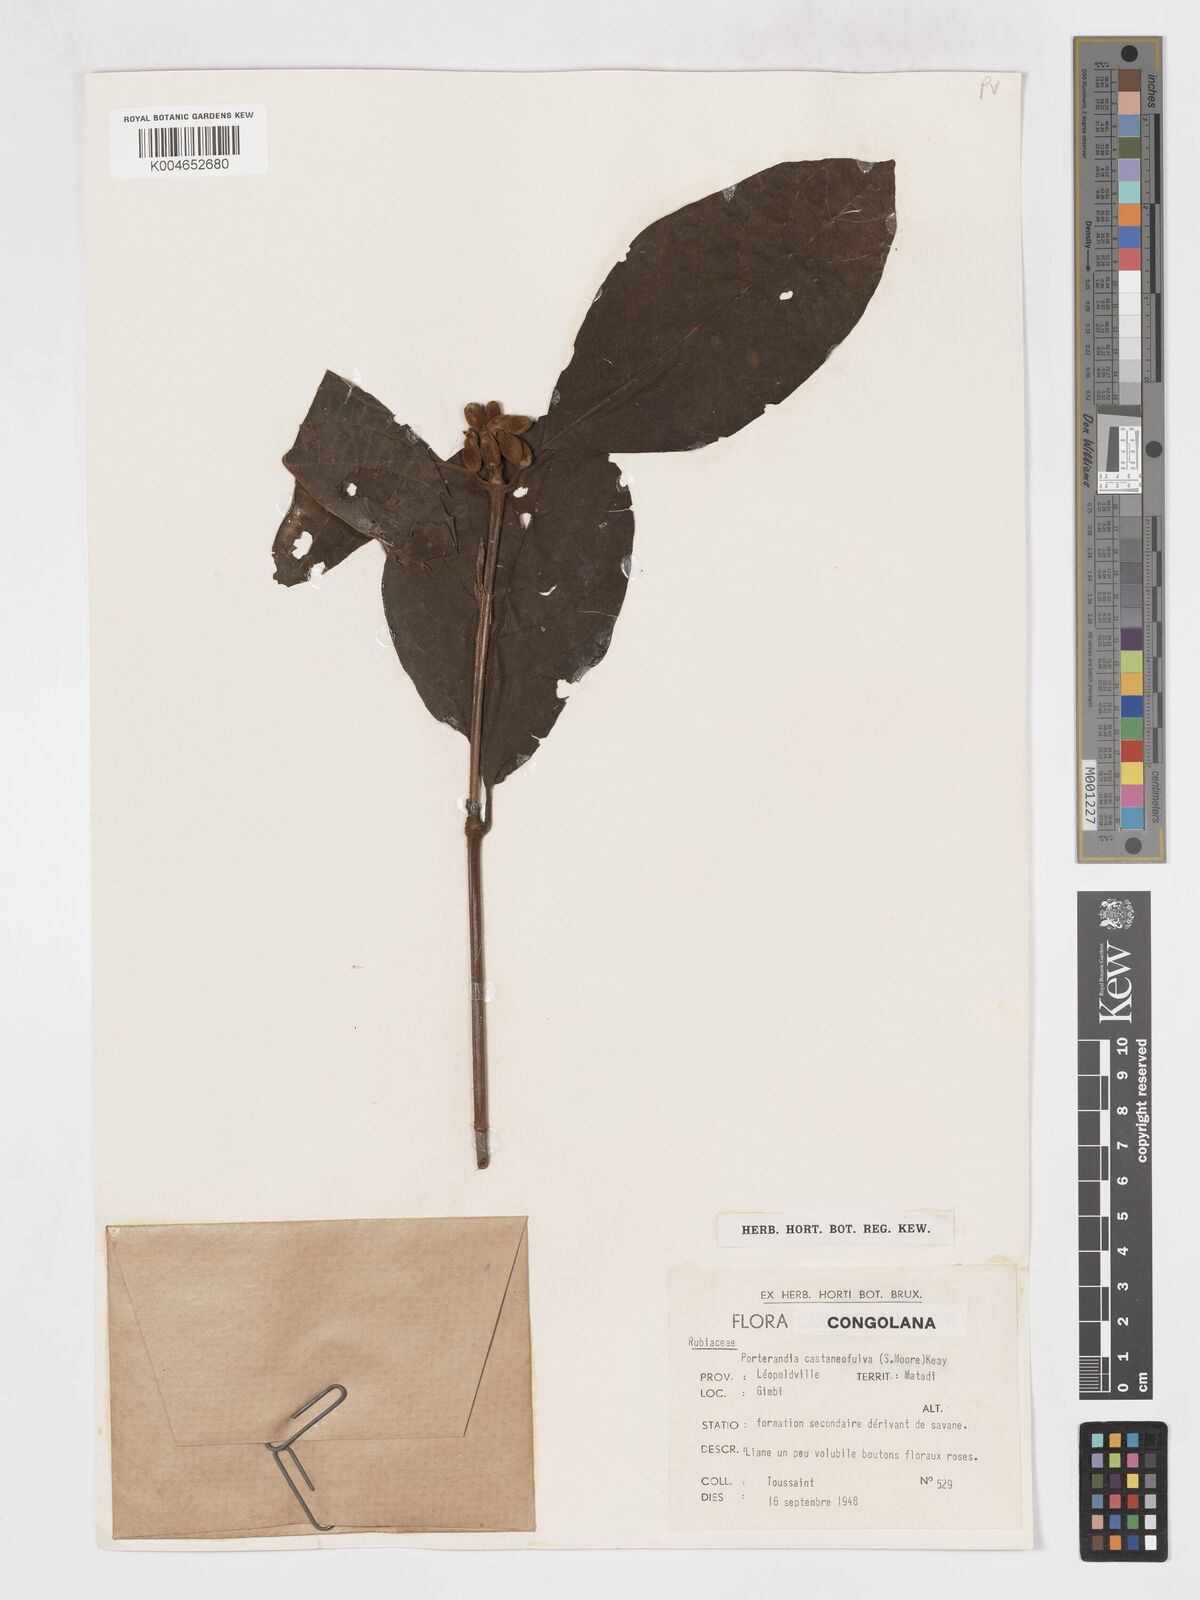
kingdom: Plantae
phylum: Tracheophyta
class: Magnoliopsida
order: Gentianales
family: Rubiaceae
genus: Aoranthe
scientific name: Aoranthe castaneofulva
